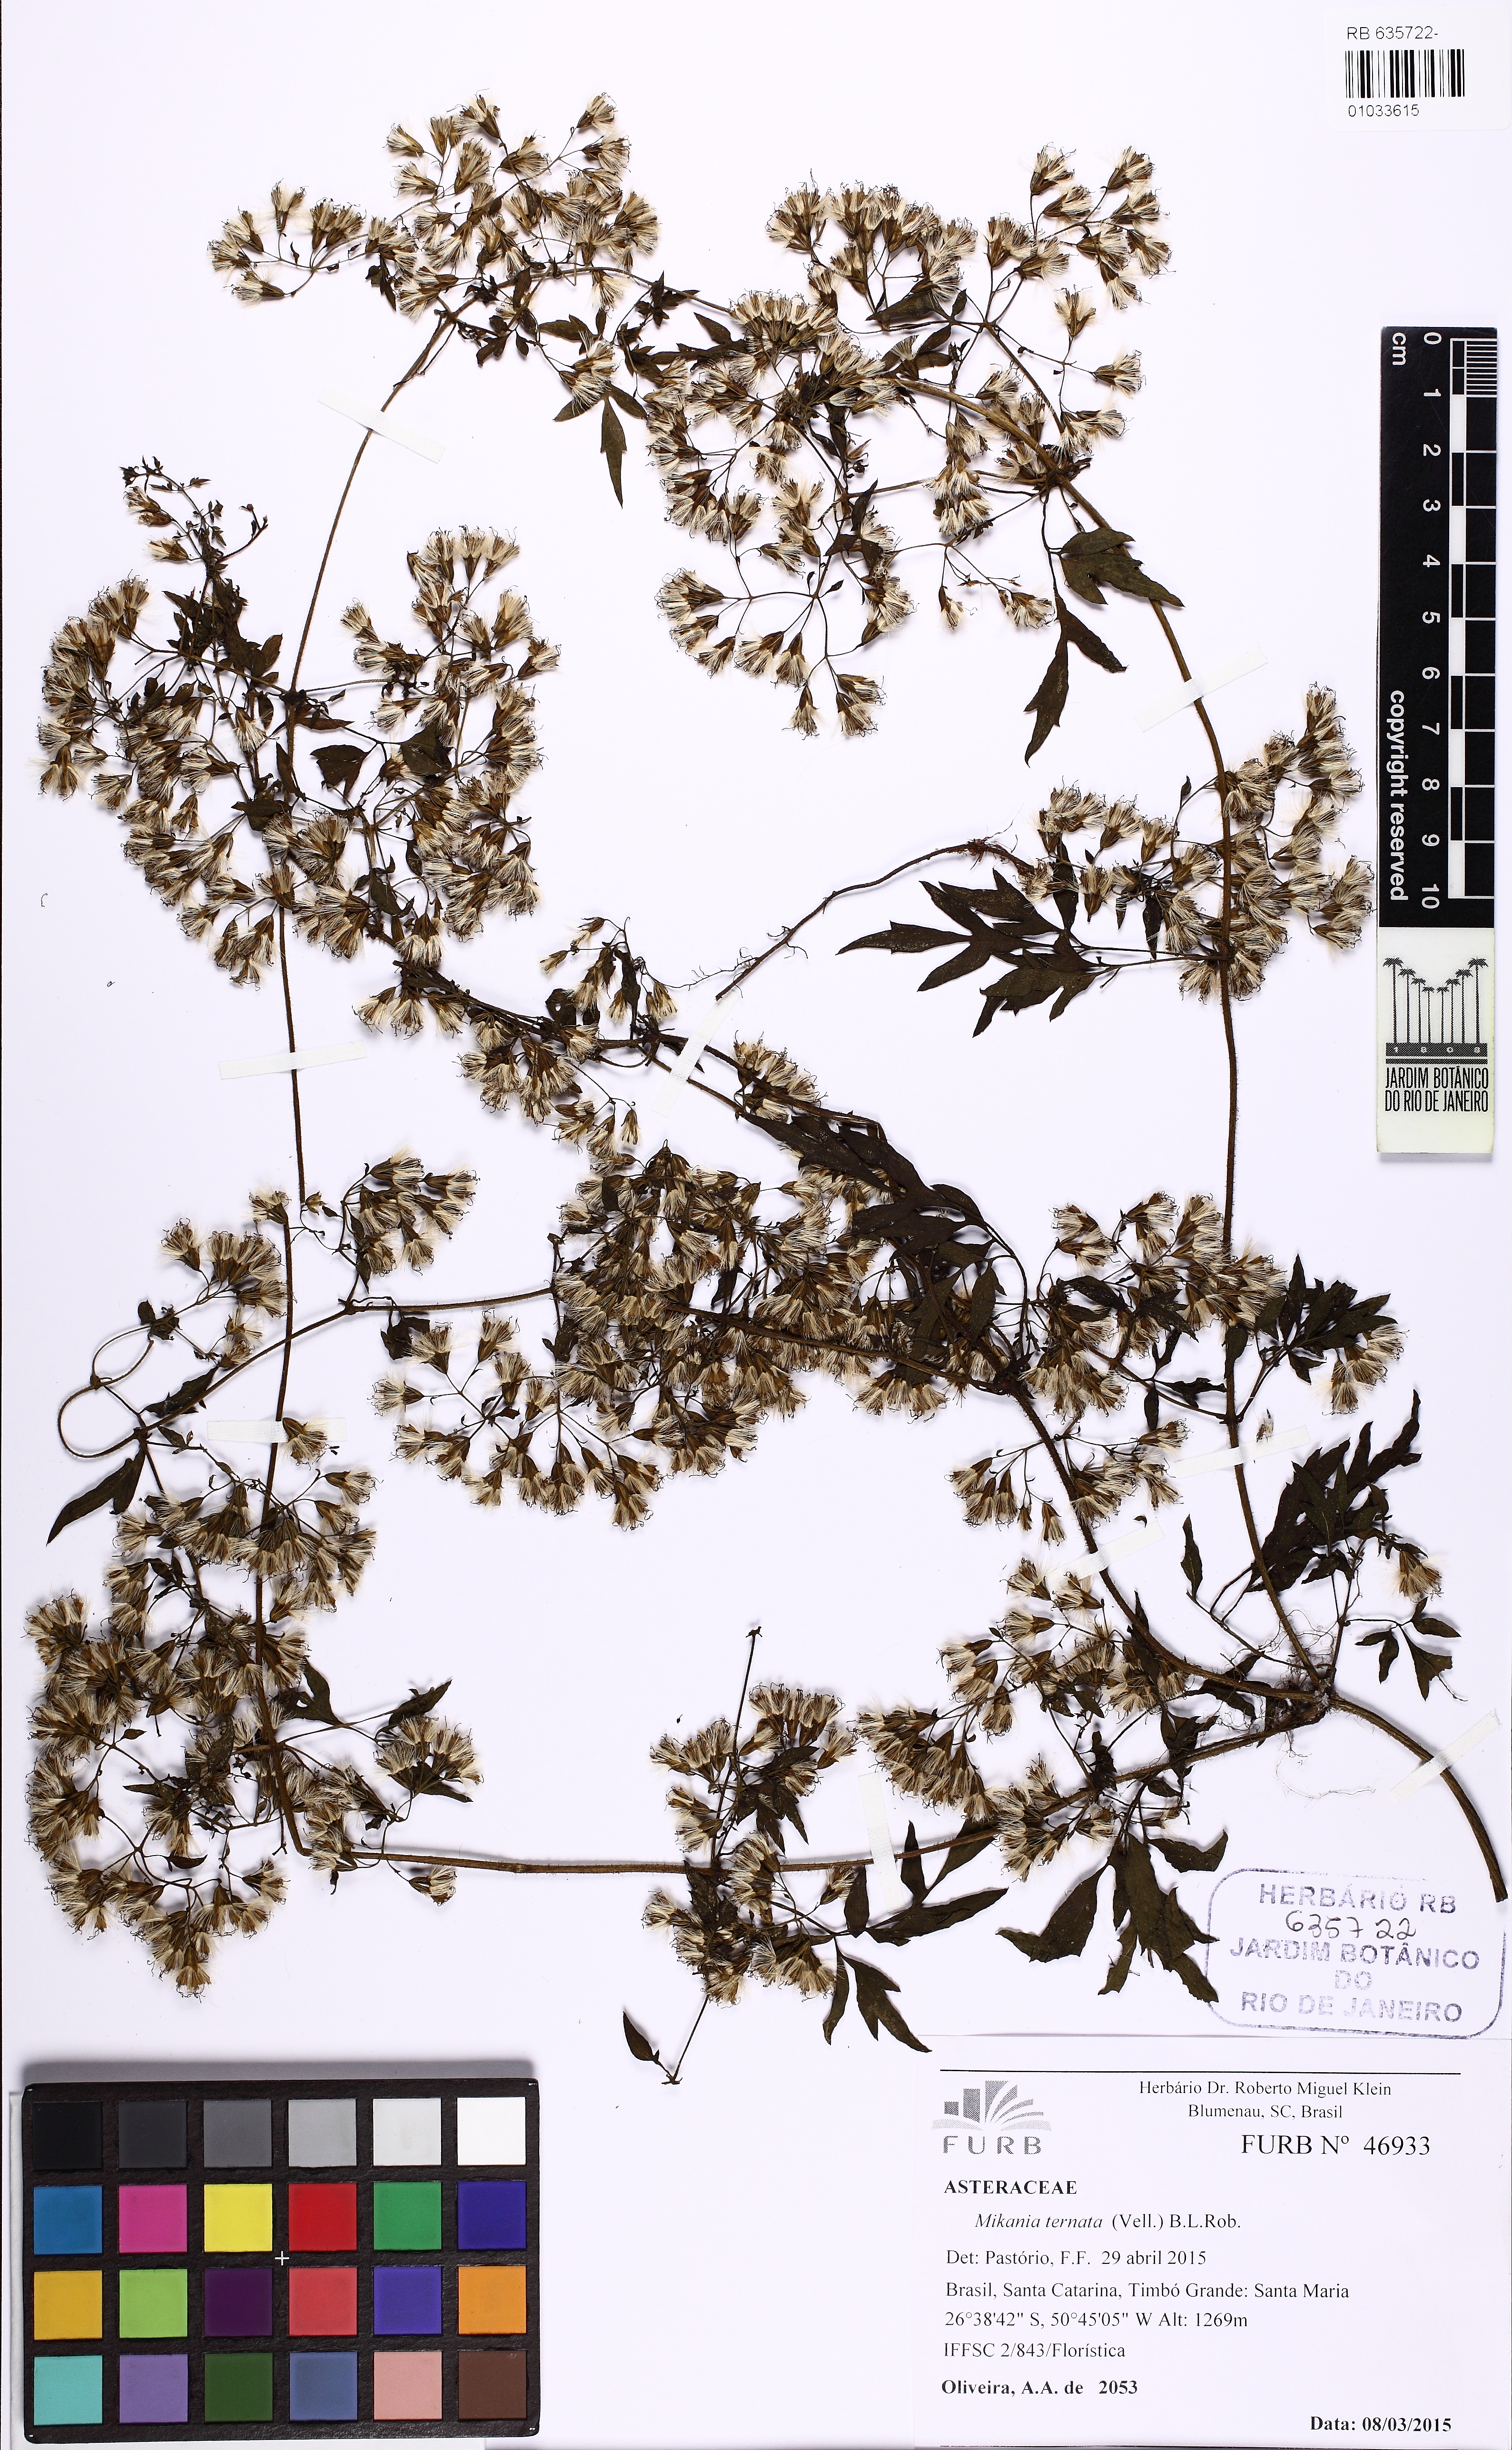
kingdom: Plantae
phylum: Tracheophyta
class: Magnoliopsida
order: Asterales
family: Asteraceae
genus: Mikania
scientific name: Mikania ternata
